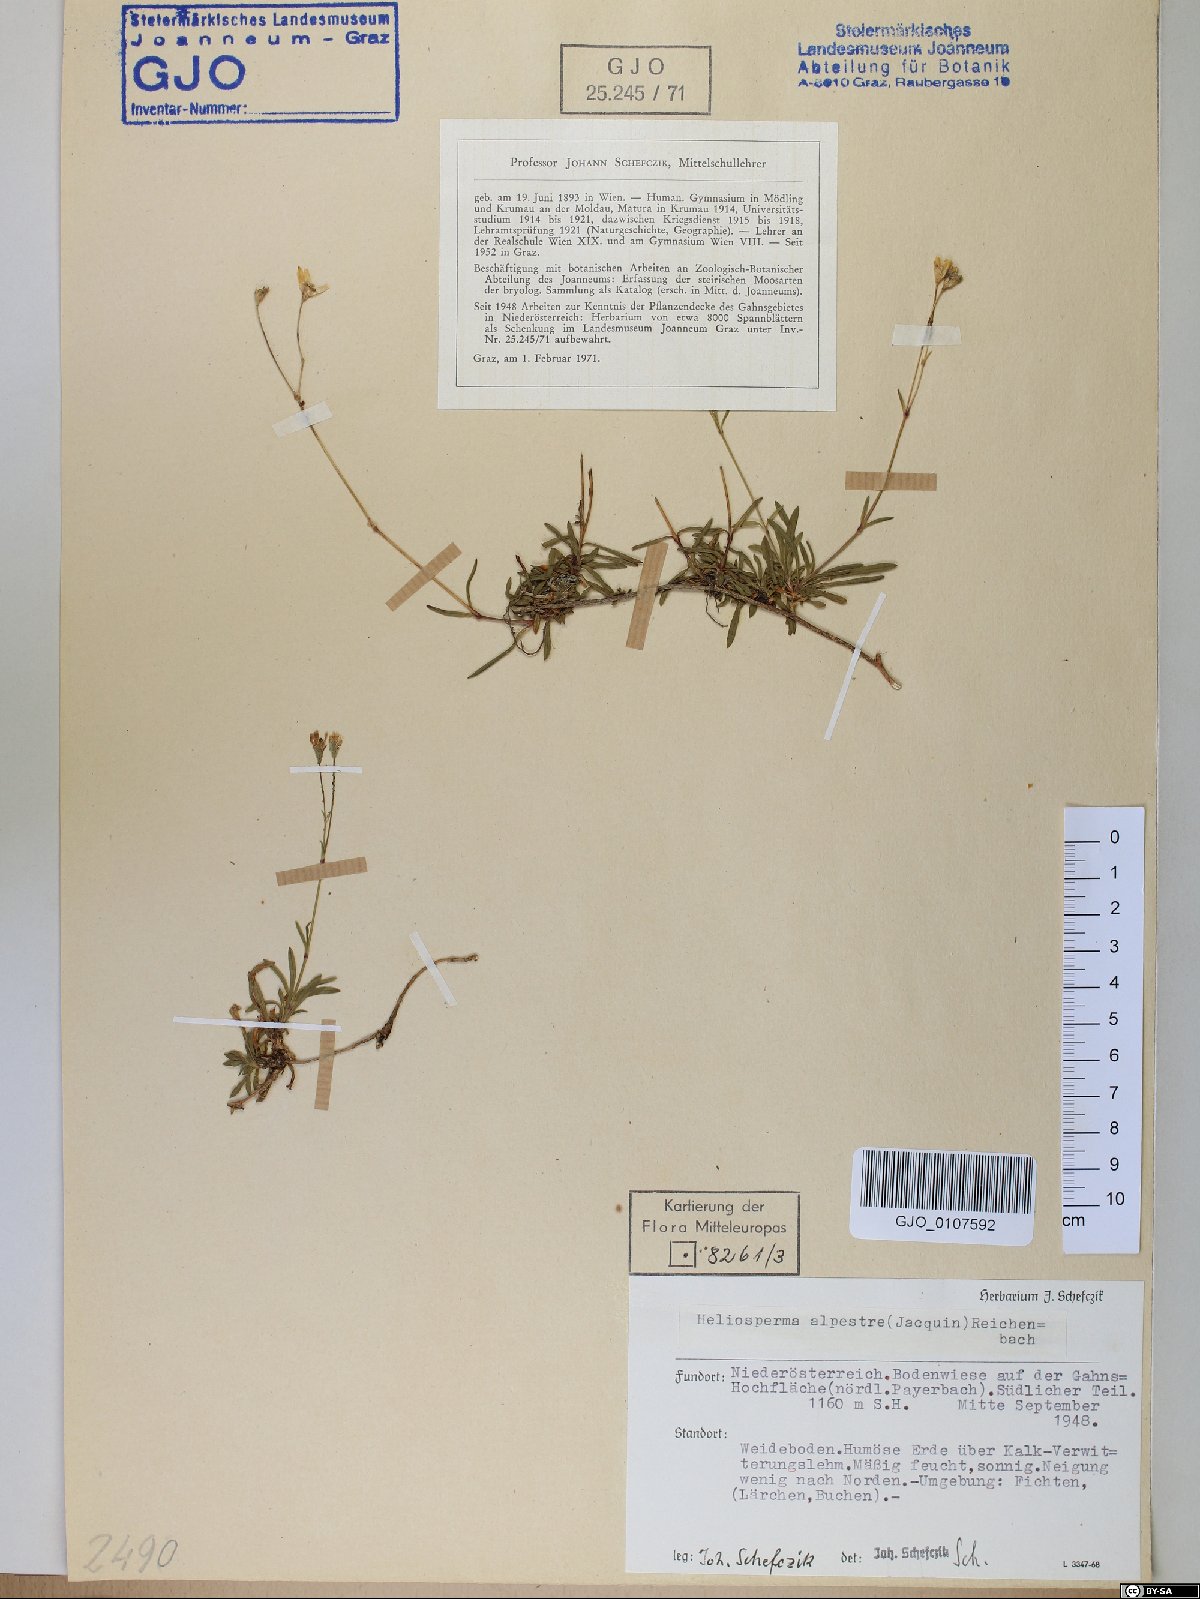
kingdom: Plantae
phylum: Tracheophyta
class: Magnoliopsida
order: Caryophyllales
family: Caryophyllaceae
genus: Heliosperma
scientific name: Heliosperma alpestre
